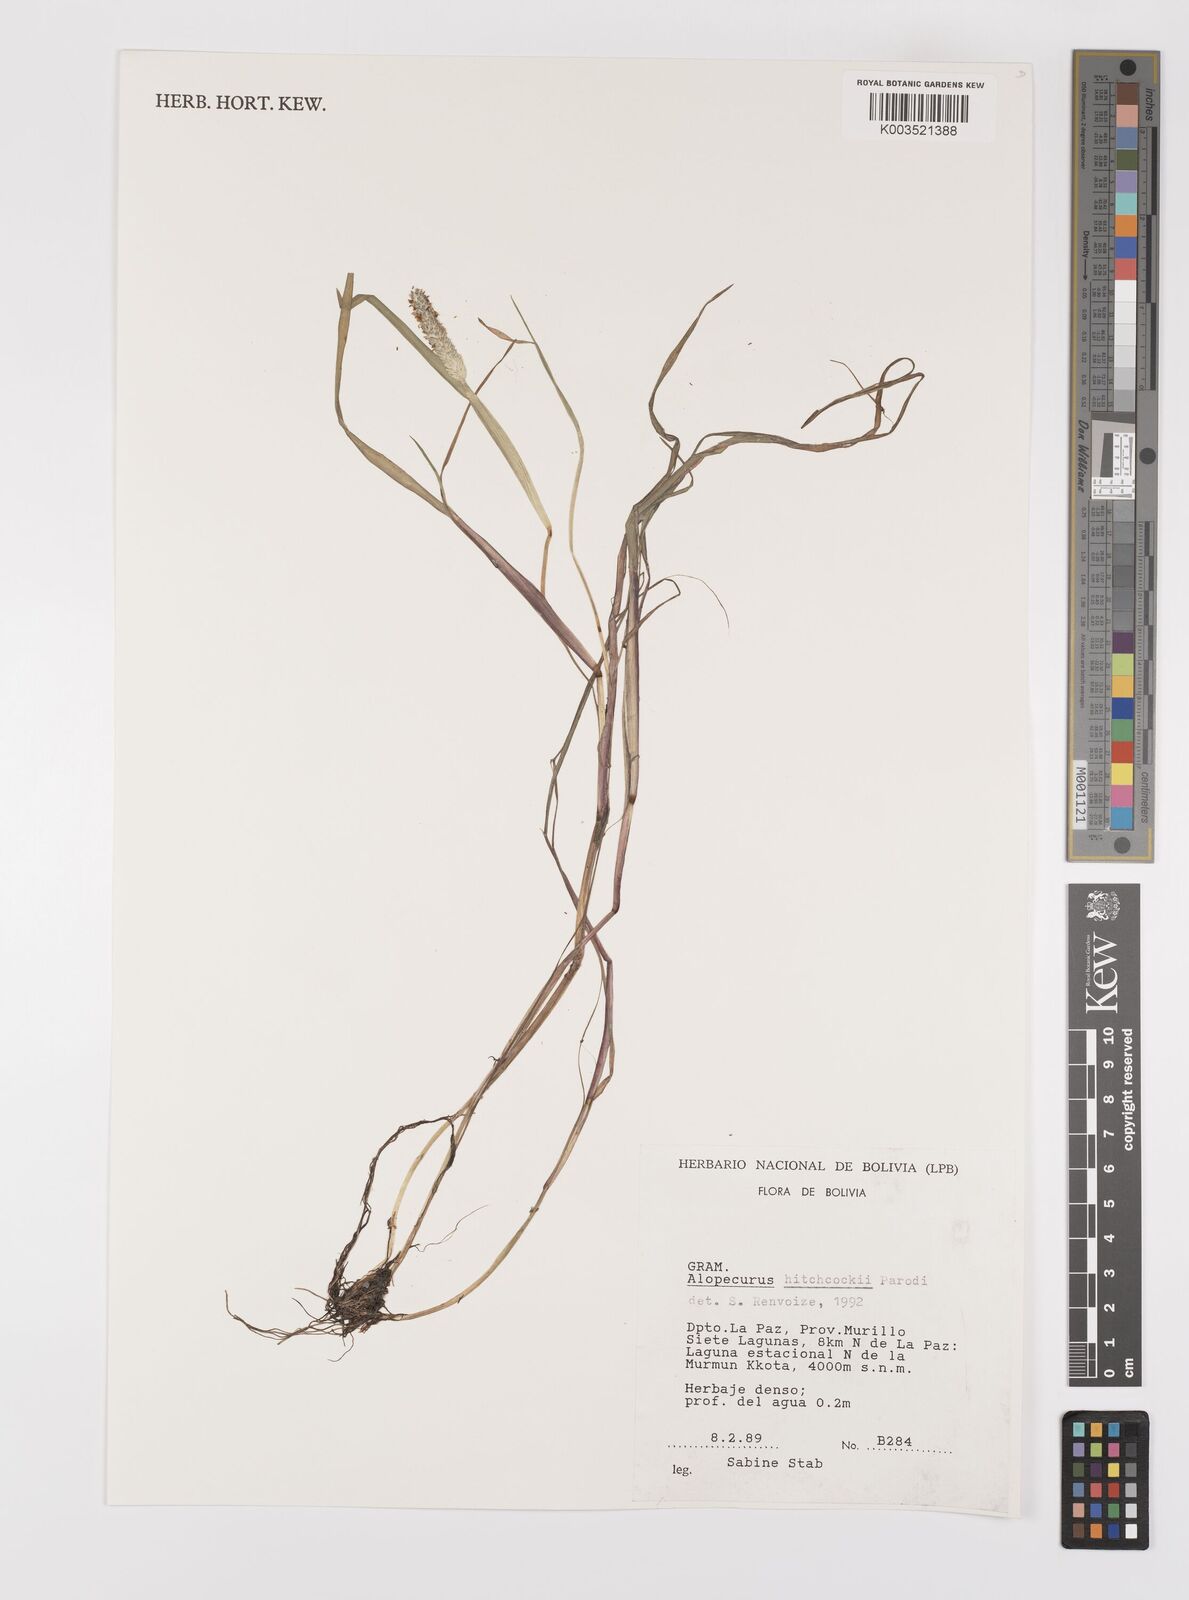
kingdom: Plantae
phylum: Tracheophyta
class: Liliopsida
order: Poales
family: Poaceae
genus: Alopecurus
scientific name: Alopecurus hitchcockii
